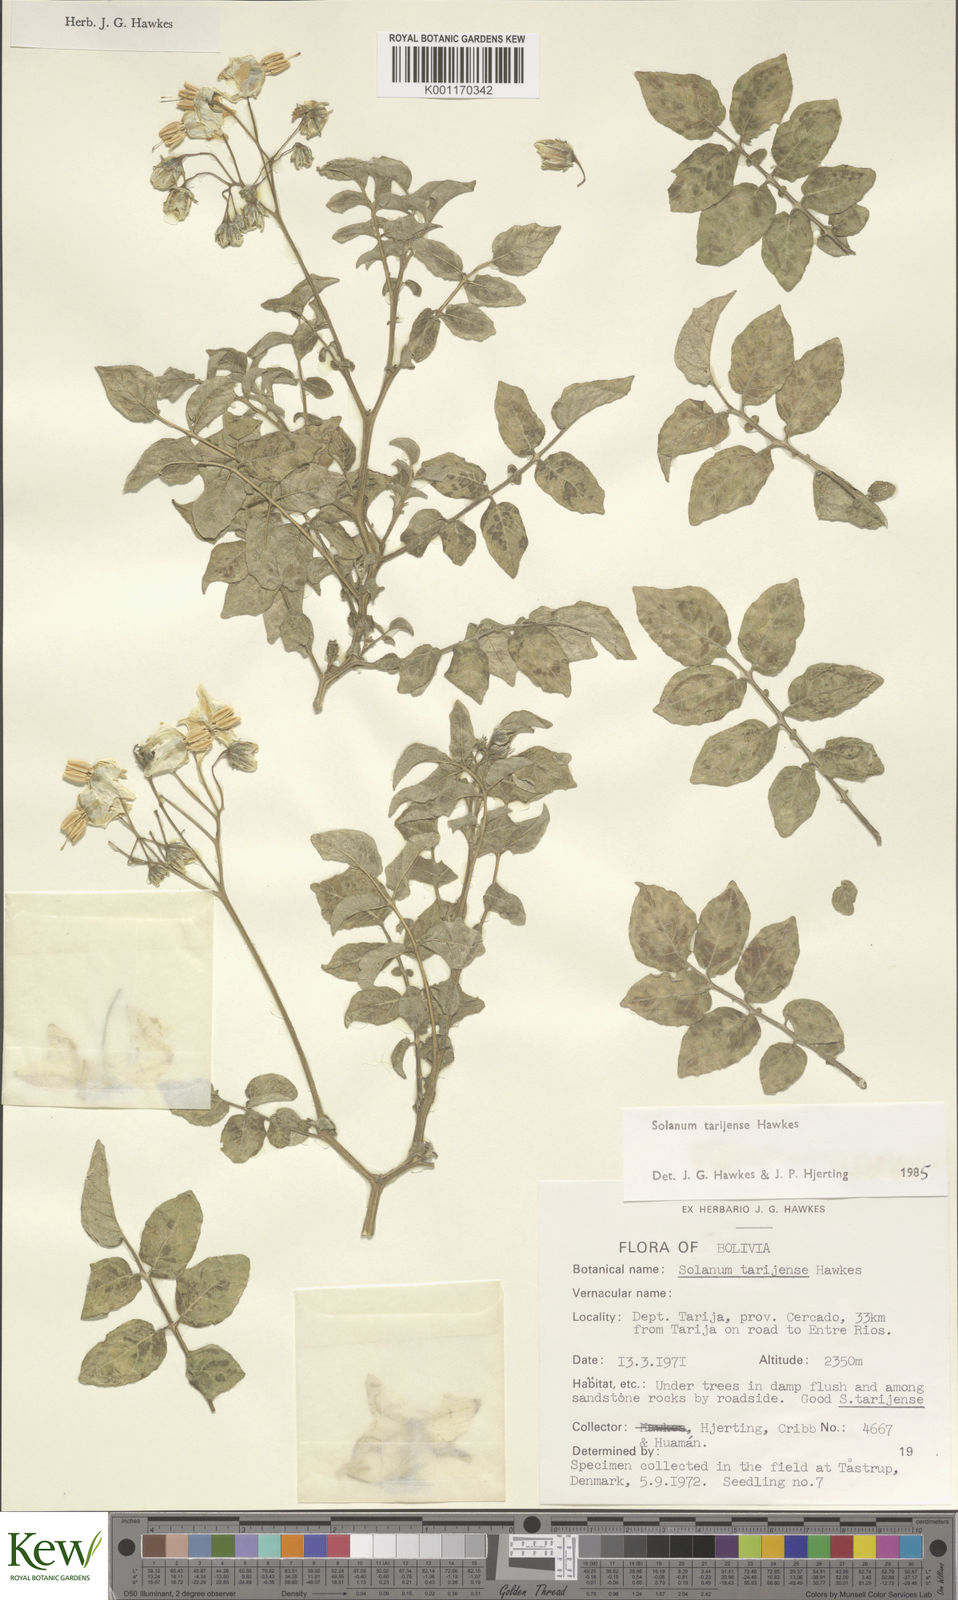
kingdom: Plantae
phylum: Tracheophyta
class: Magnoliopsida
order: Solanales
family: Solanaceae
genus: Solanum
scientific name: Solanum tarijense
